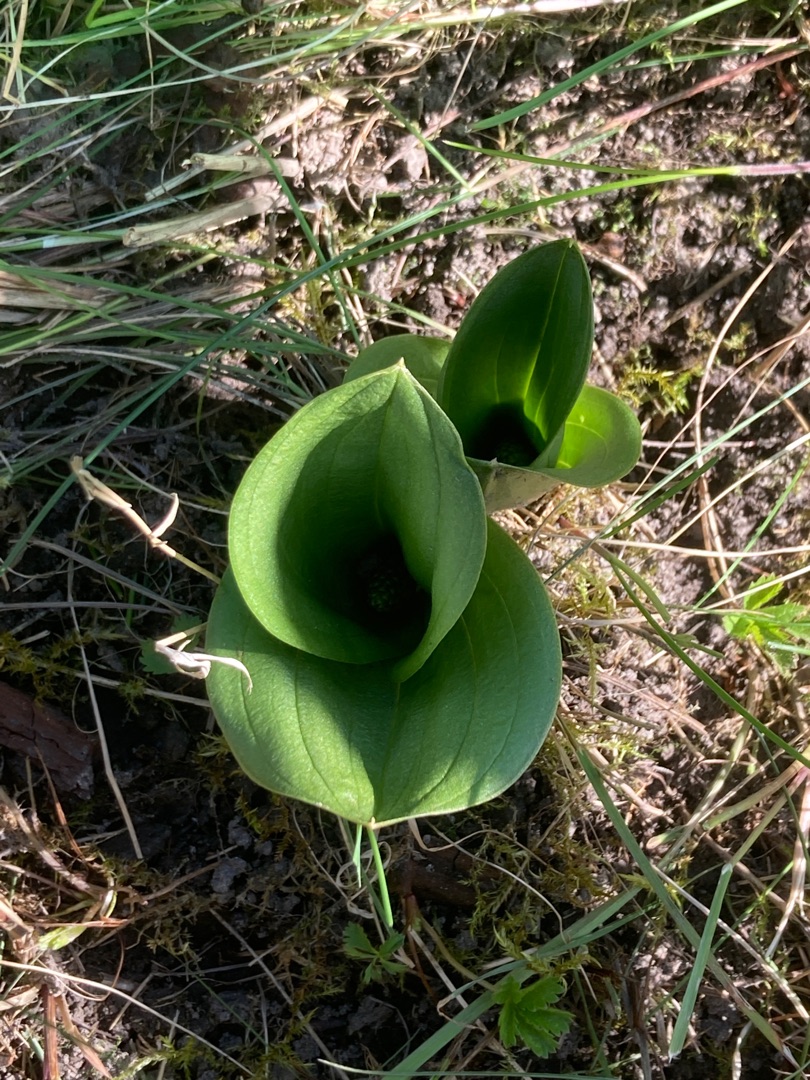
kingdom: Plantae
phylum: Tracheophyta
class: Liliopsida
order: Asparagales
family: Orchidaceae
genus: Neottia
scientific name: Neottia ovata
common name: Ægbladet fliglæbe
